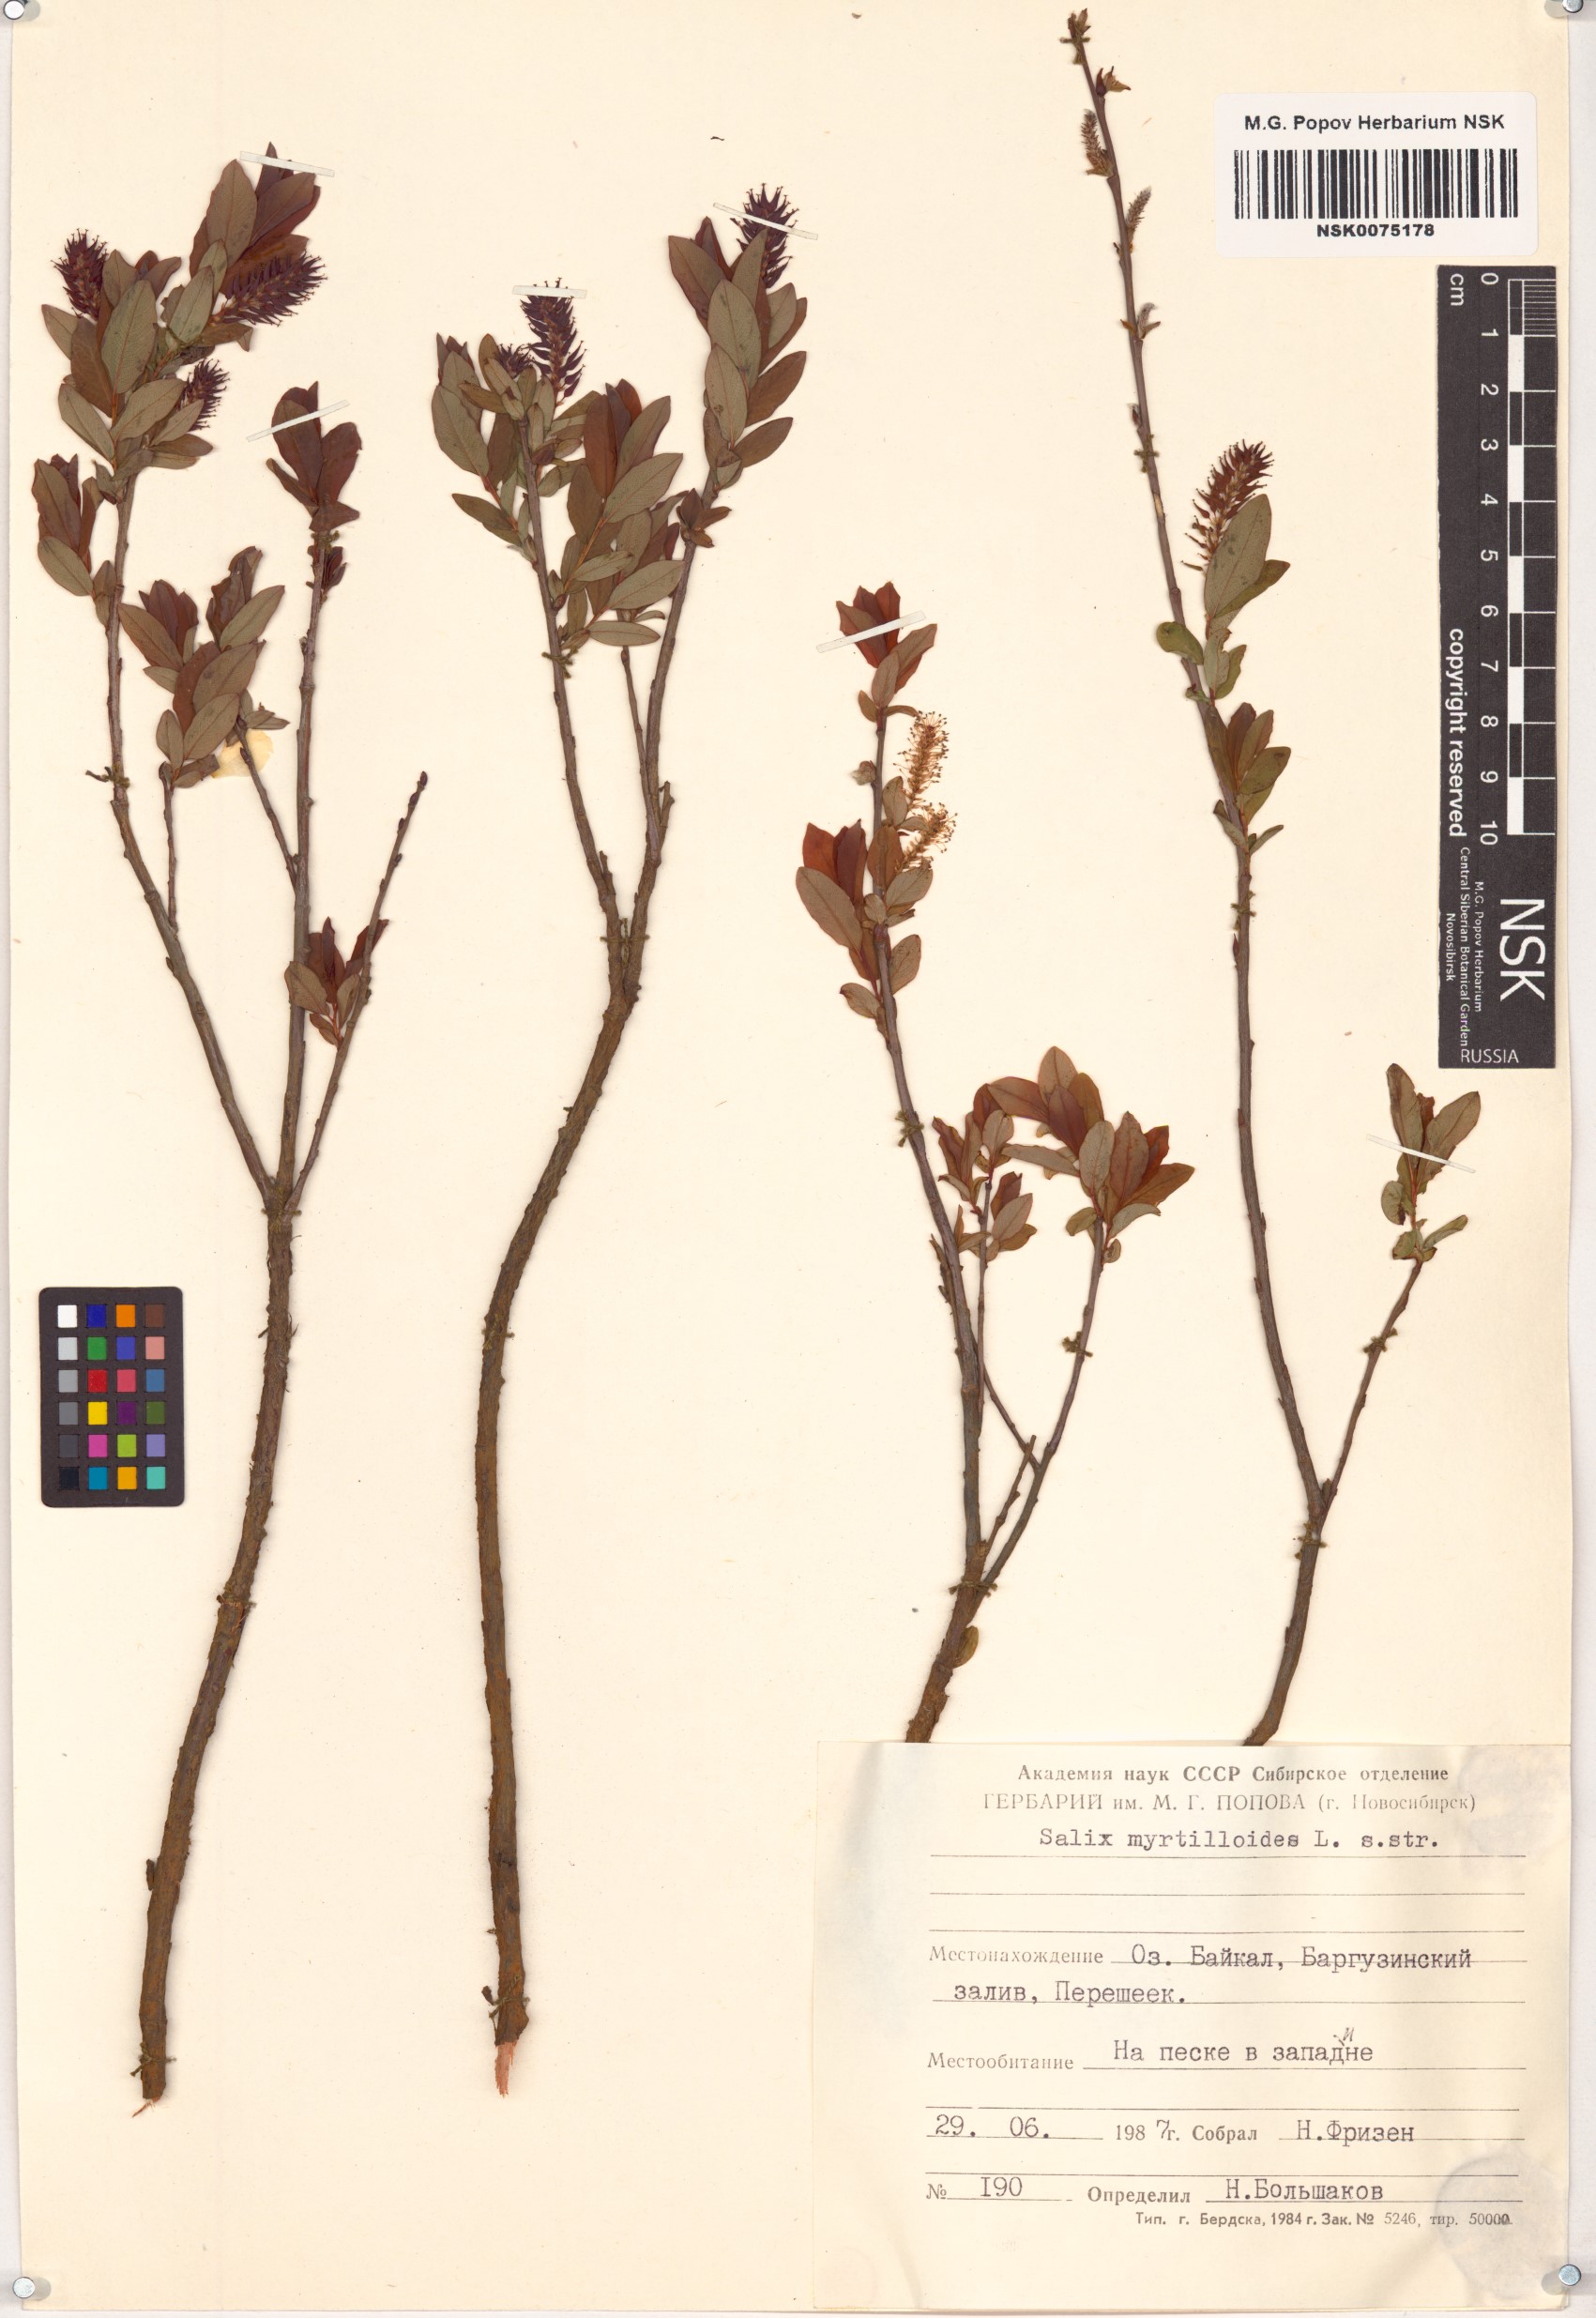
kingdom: Plantae
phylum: Tracheophyta
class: Magnoliopsida
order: Malpighiales
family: Salicaceae
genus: Salix
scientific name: Salix myrtilloides
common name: Myrtle-leaved willow
